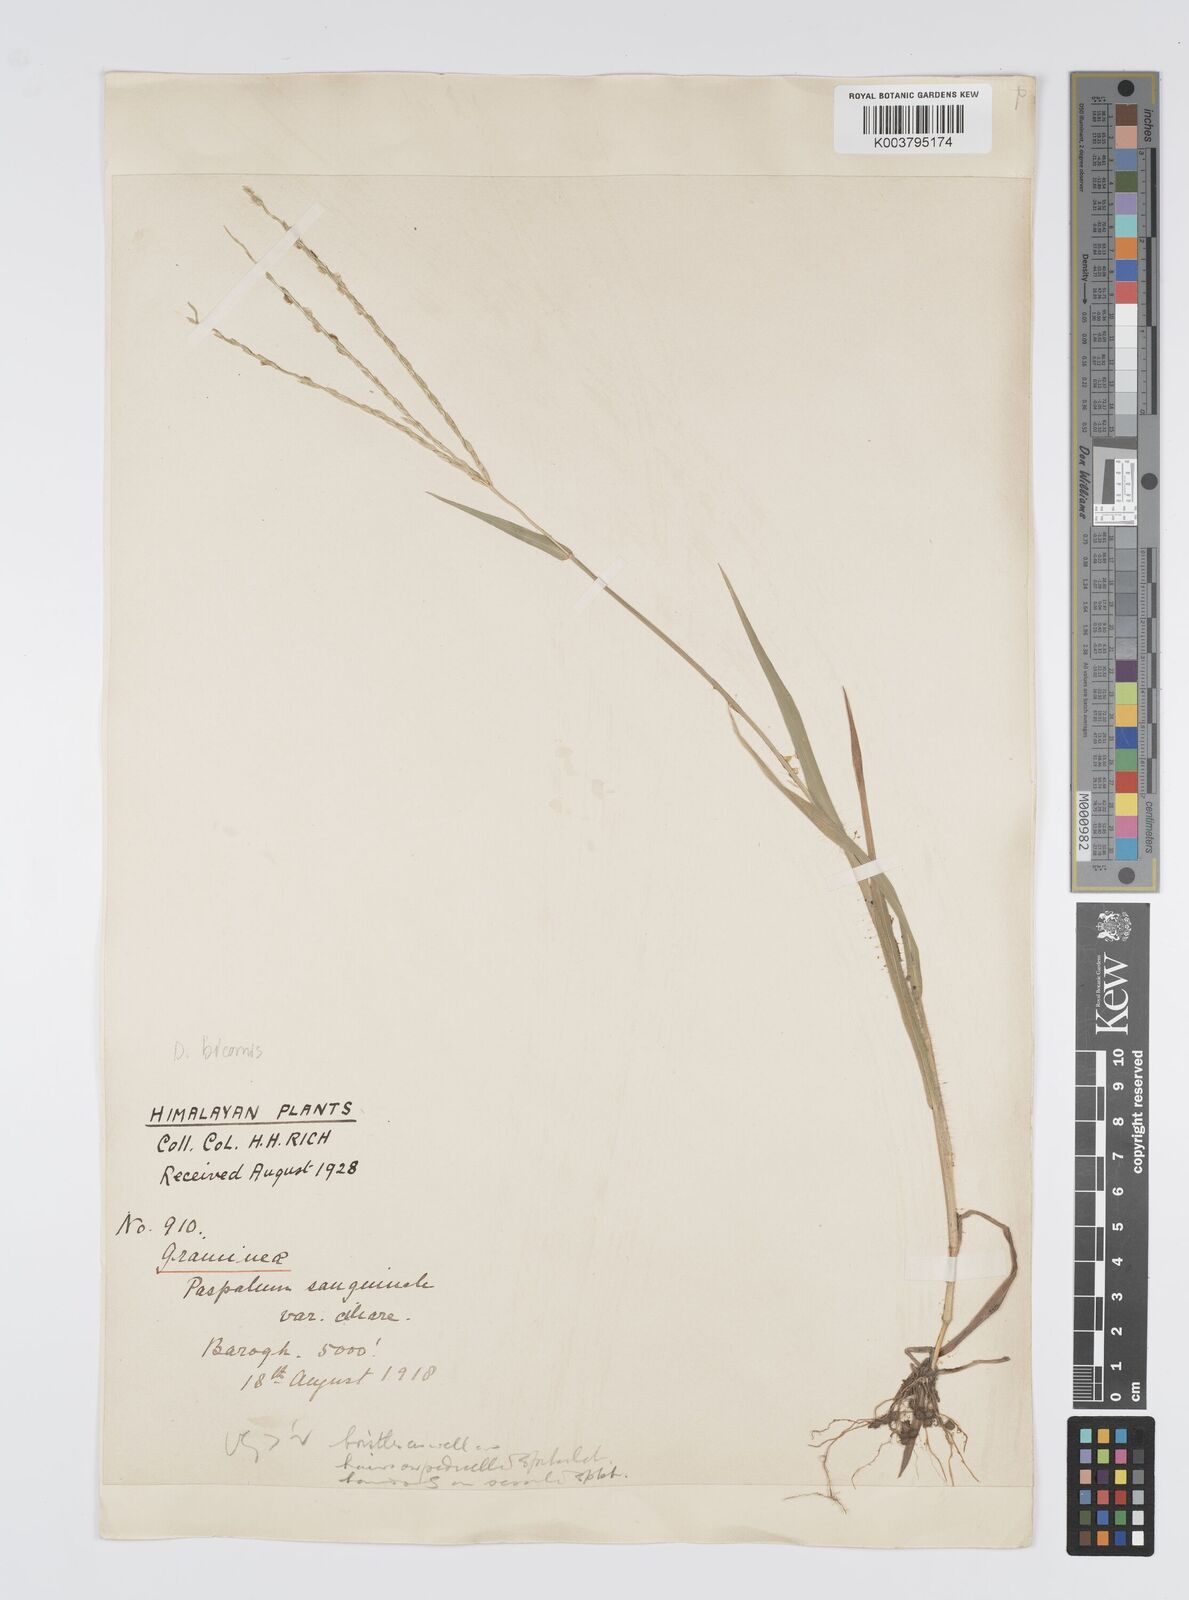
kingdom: Plantae
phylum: Tracheophyta
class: Liliopsida
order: Poales
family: Poaceae
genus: Digitaria
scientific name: Digitaria ciliaris
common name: Tropical finger-grass
